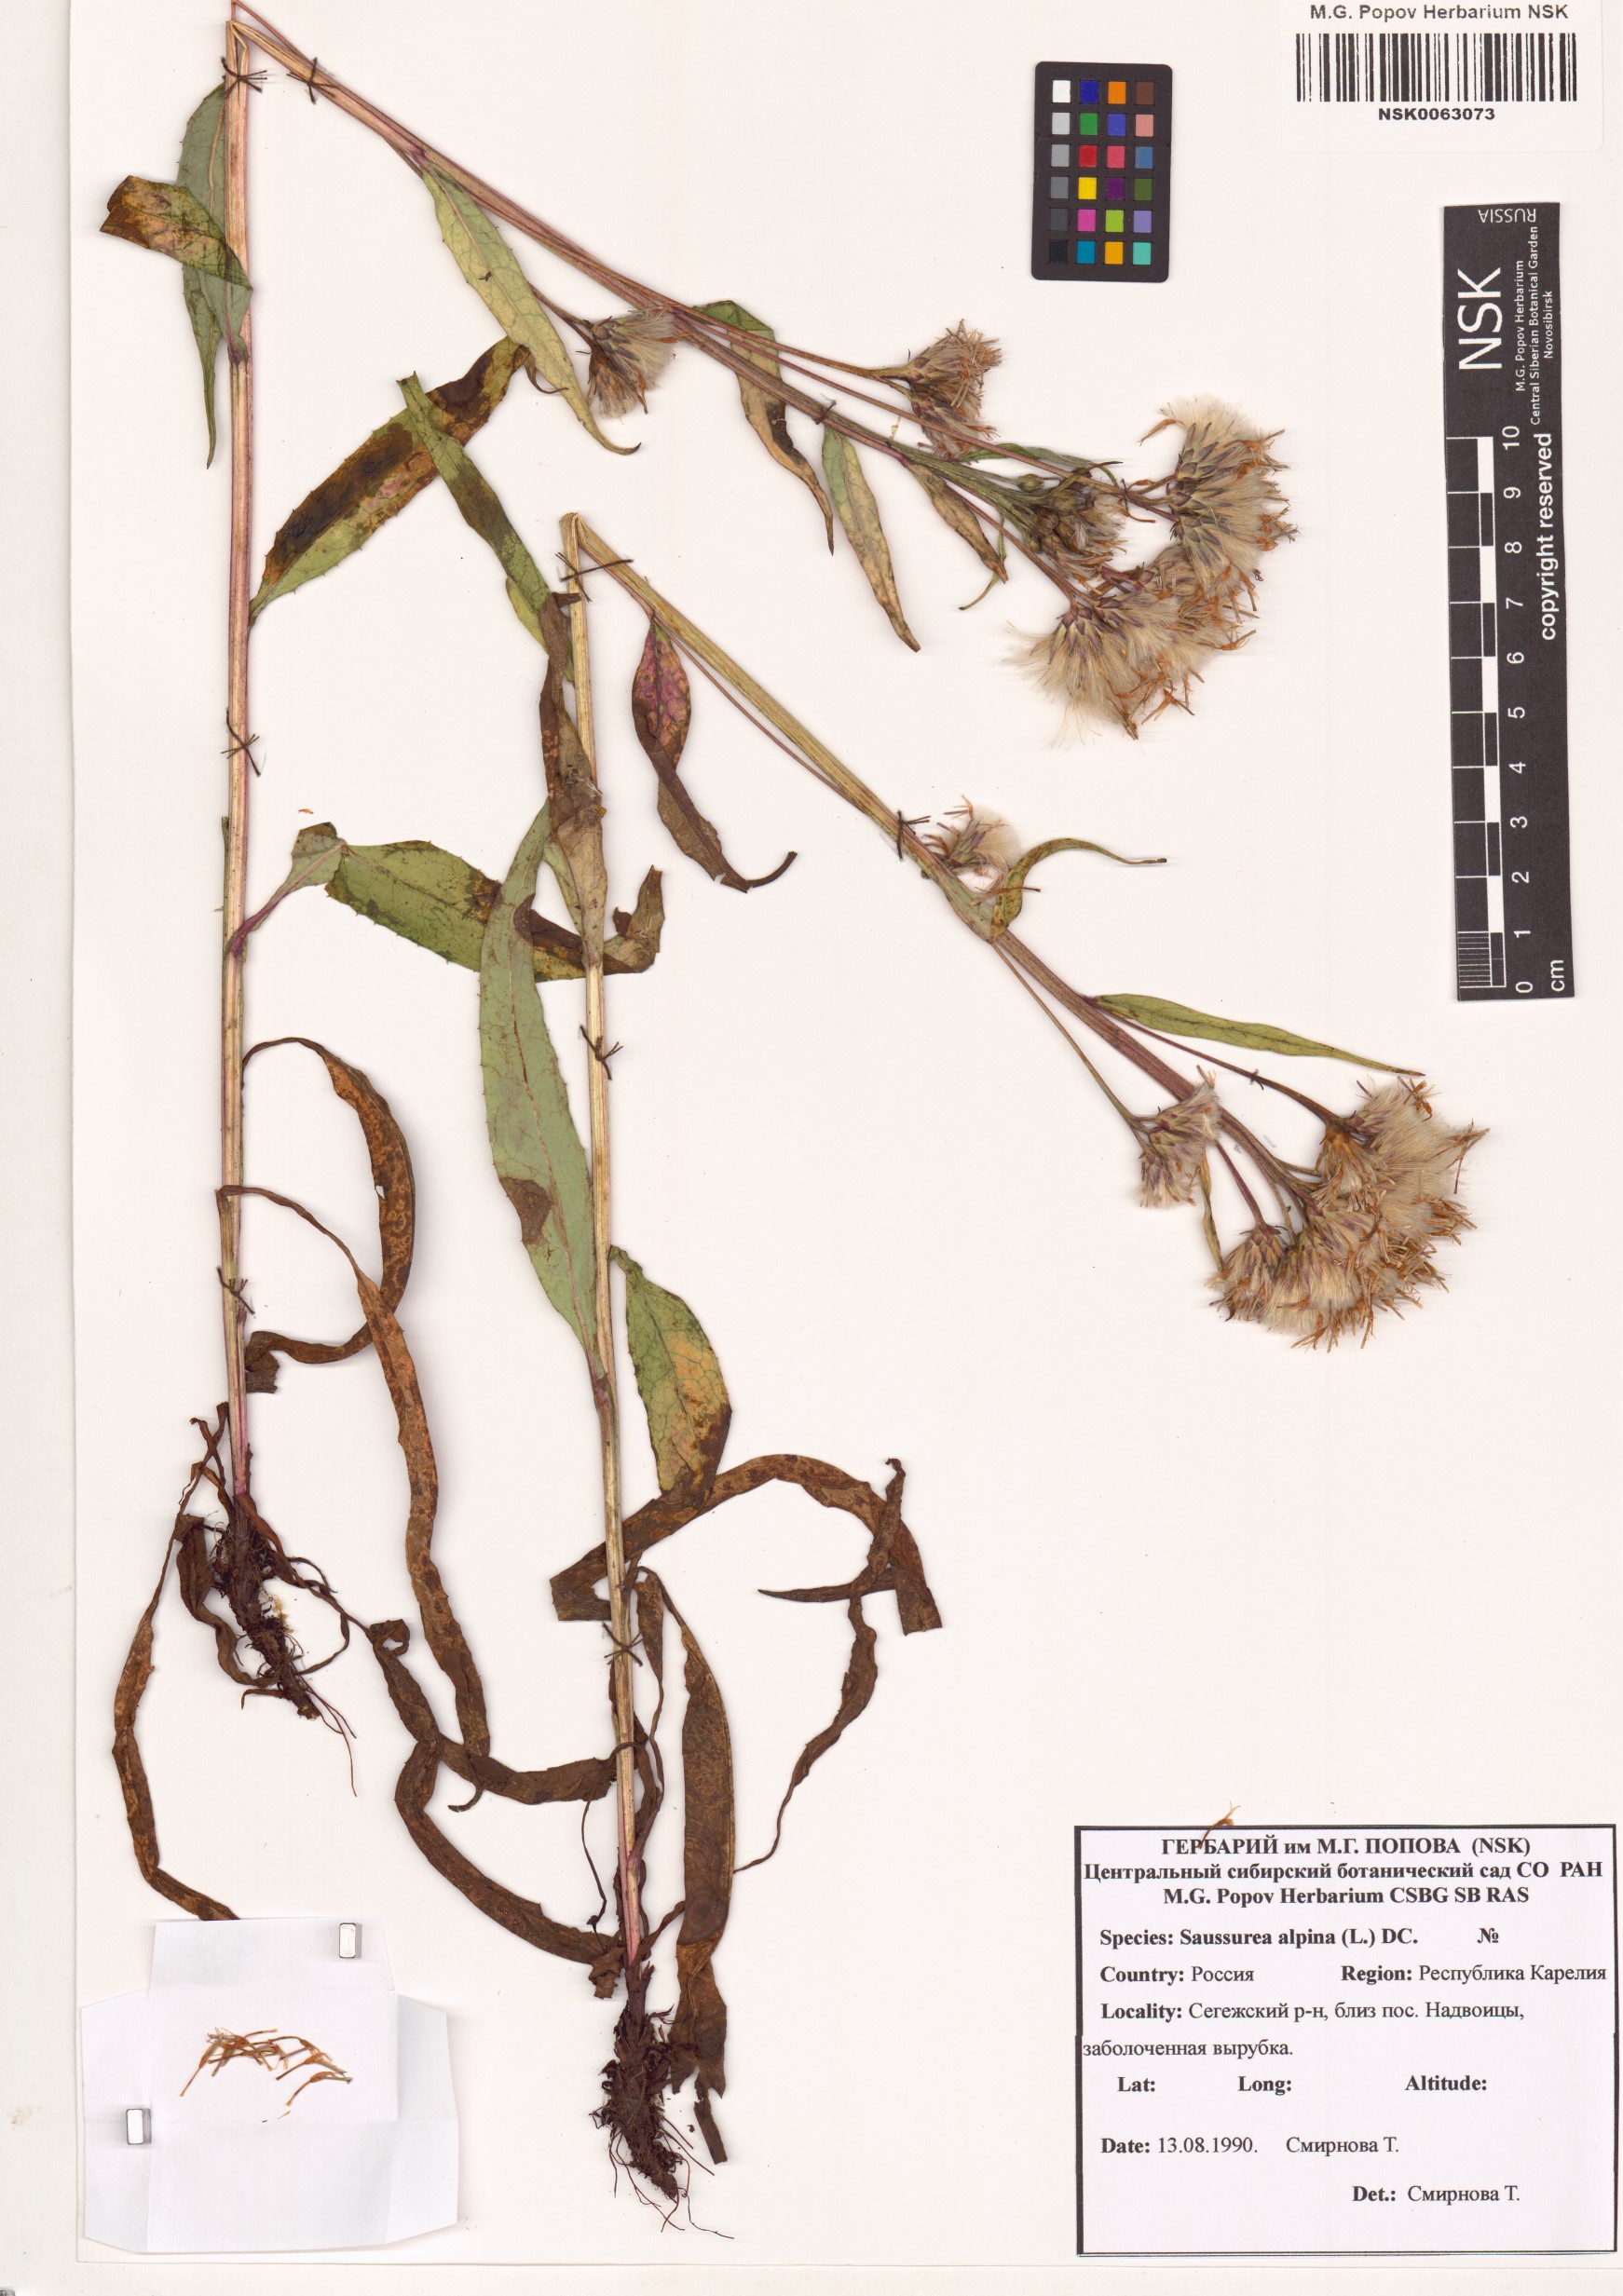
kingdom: Plantae
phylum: Tracheophyta
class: Magnoliopsida
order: Asterales
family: Asteraceae
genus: Saussurea
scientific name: Saussurea alpina
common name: Alpine saw-wort
